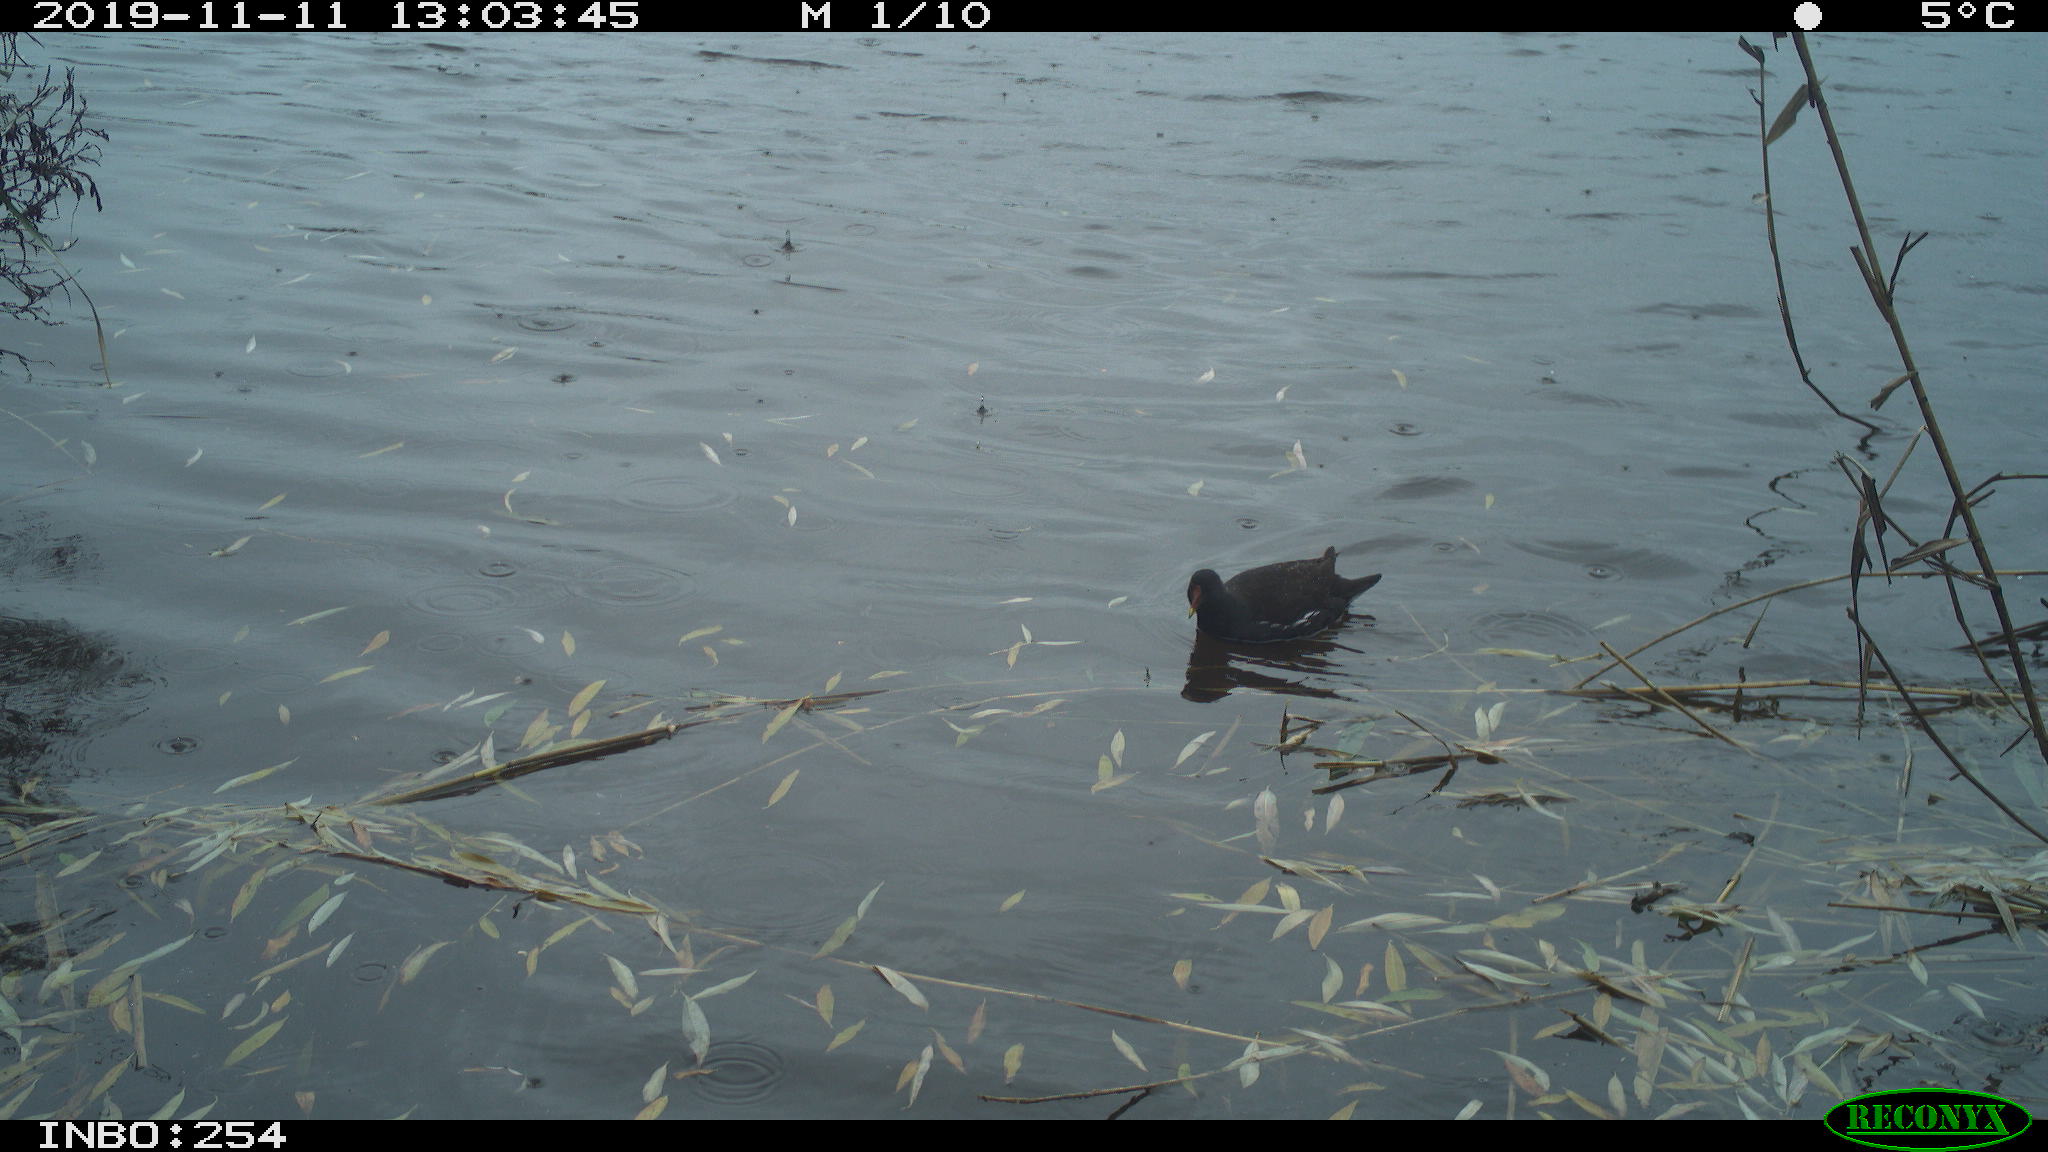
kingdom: Animalia
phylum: Chordata
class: Aves
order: Gruiformes
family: Rallidae
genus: Gallinula
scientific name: Gallinula chloropus
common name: Common moorhen
